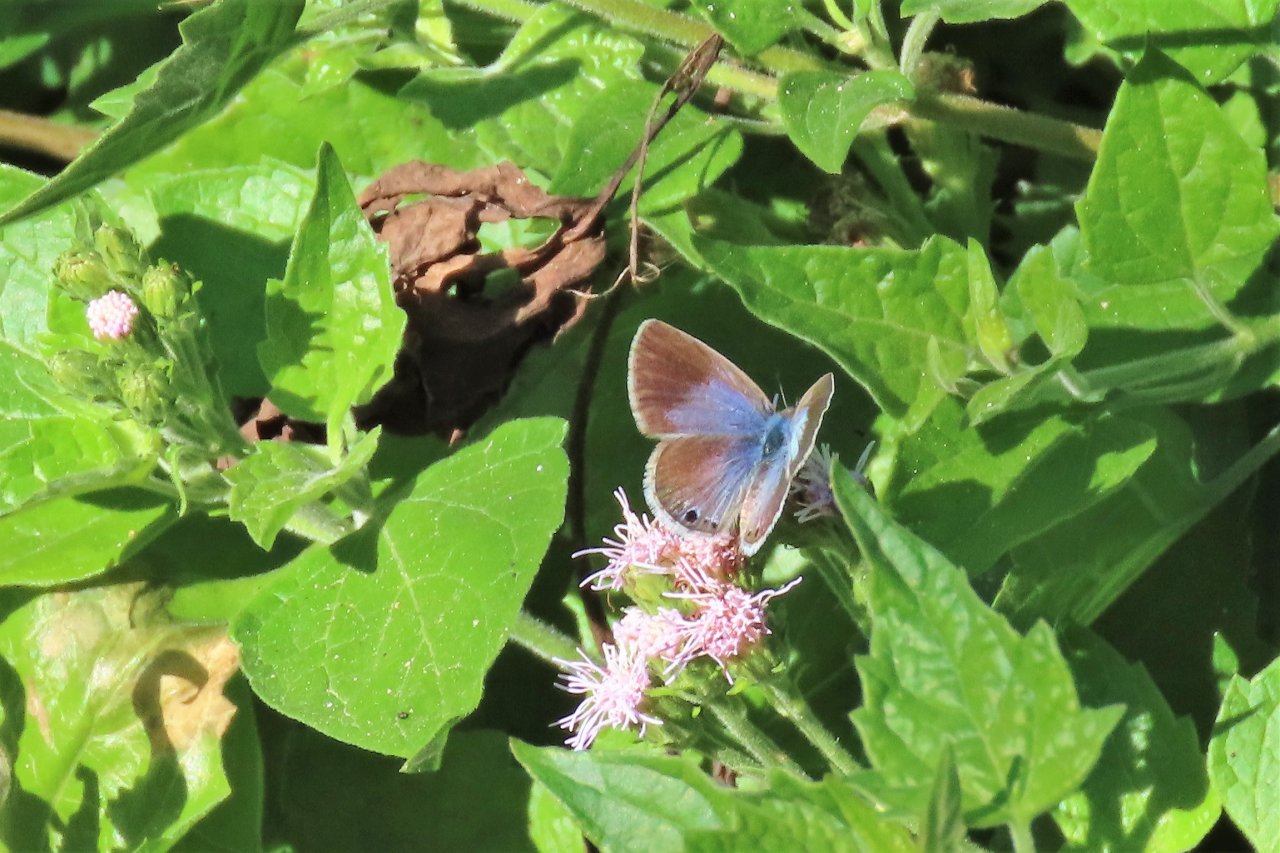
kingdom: Animalia
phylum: Arthropoda
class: Insecta
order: Lepidoptera
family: Lycaenidae
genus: Echinargus
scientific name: Echinargus isola
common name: Reakirt's Blue
